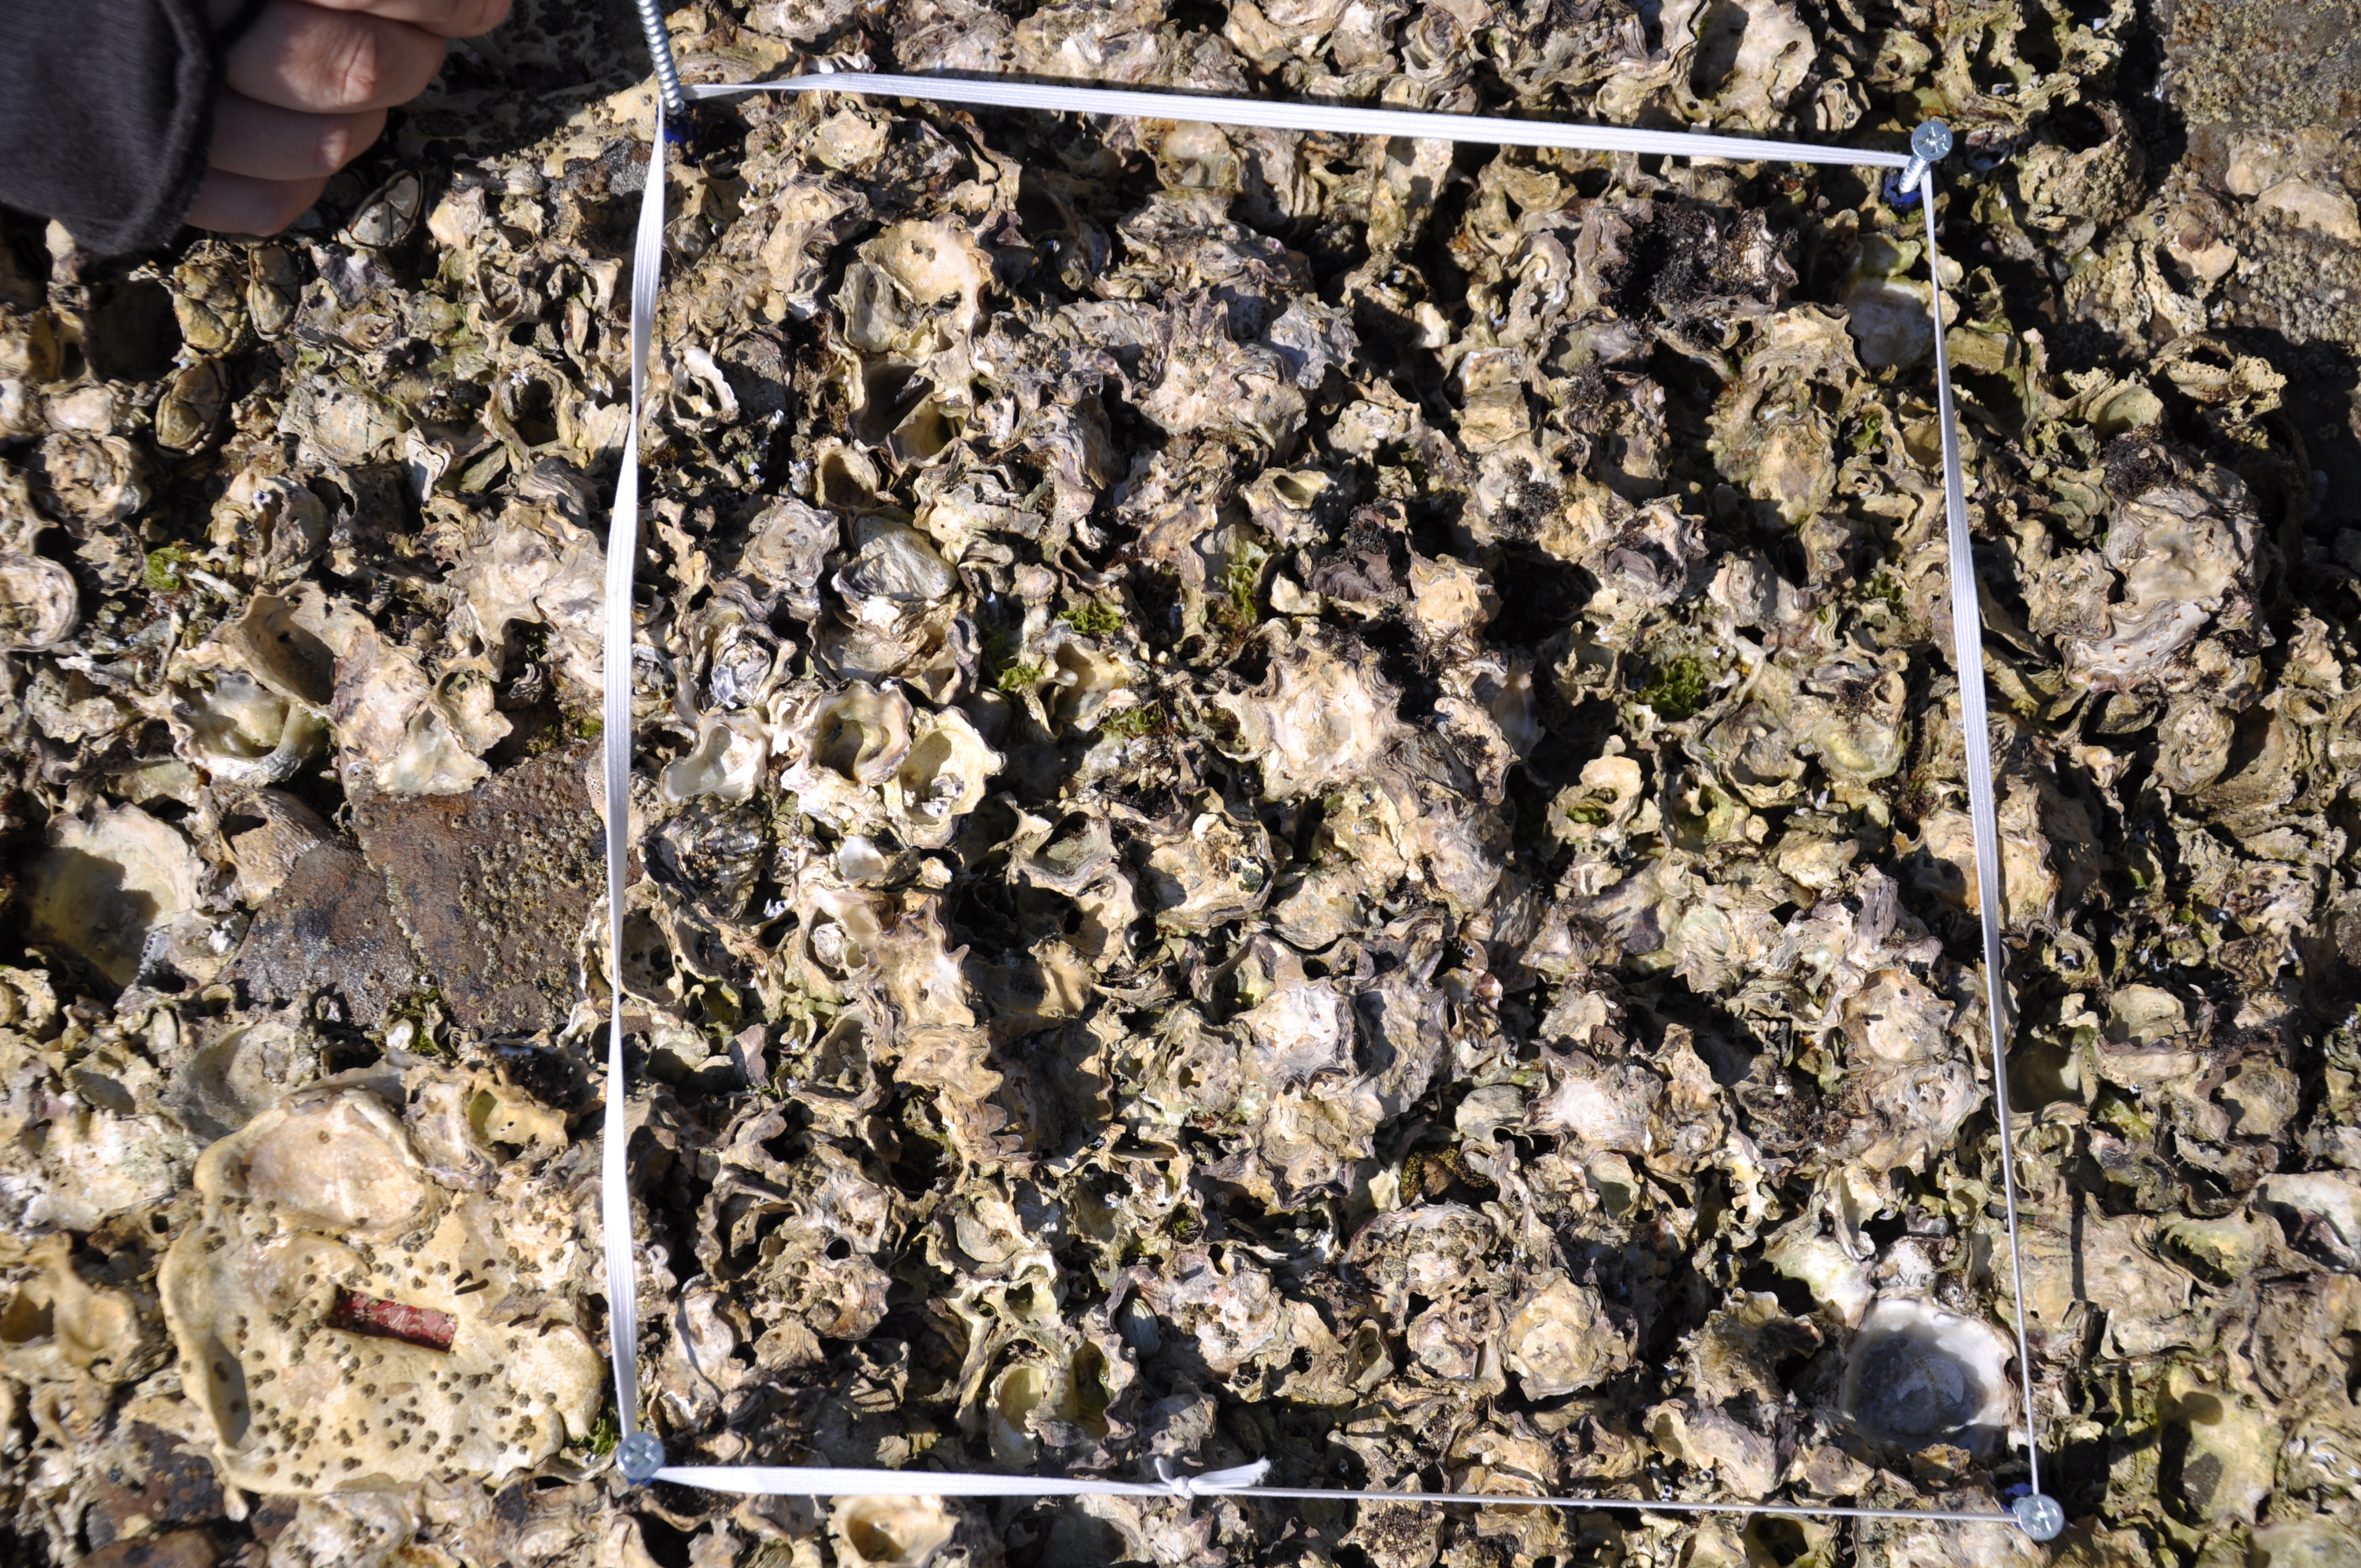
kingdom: Animalia
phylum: Arthropoda
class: Maxillopoda
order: Sessilia
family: Chthamalidae
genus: Chthamalus
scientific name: Chthamalus challengeri
